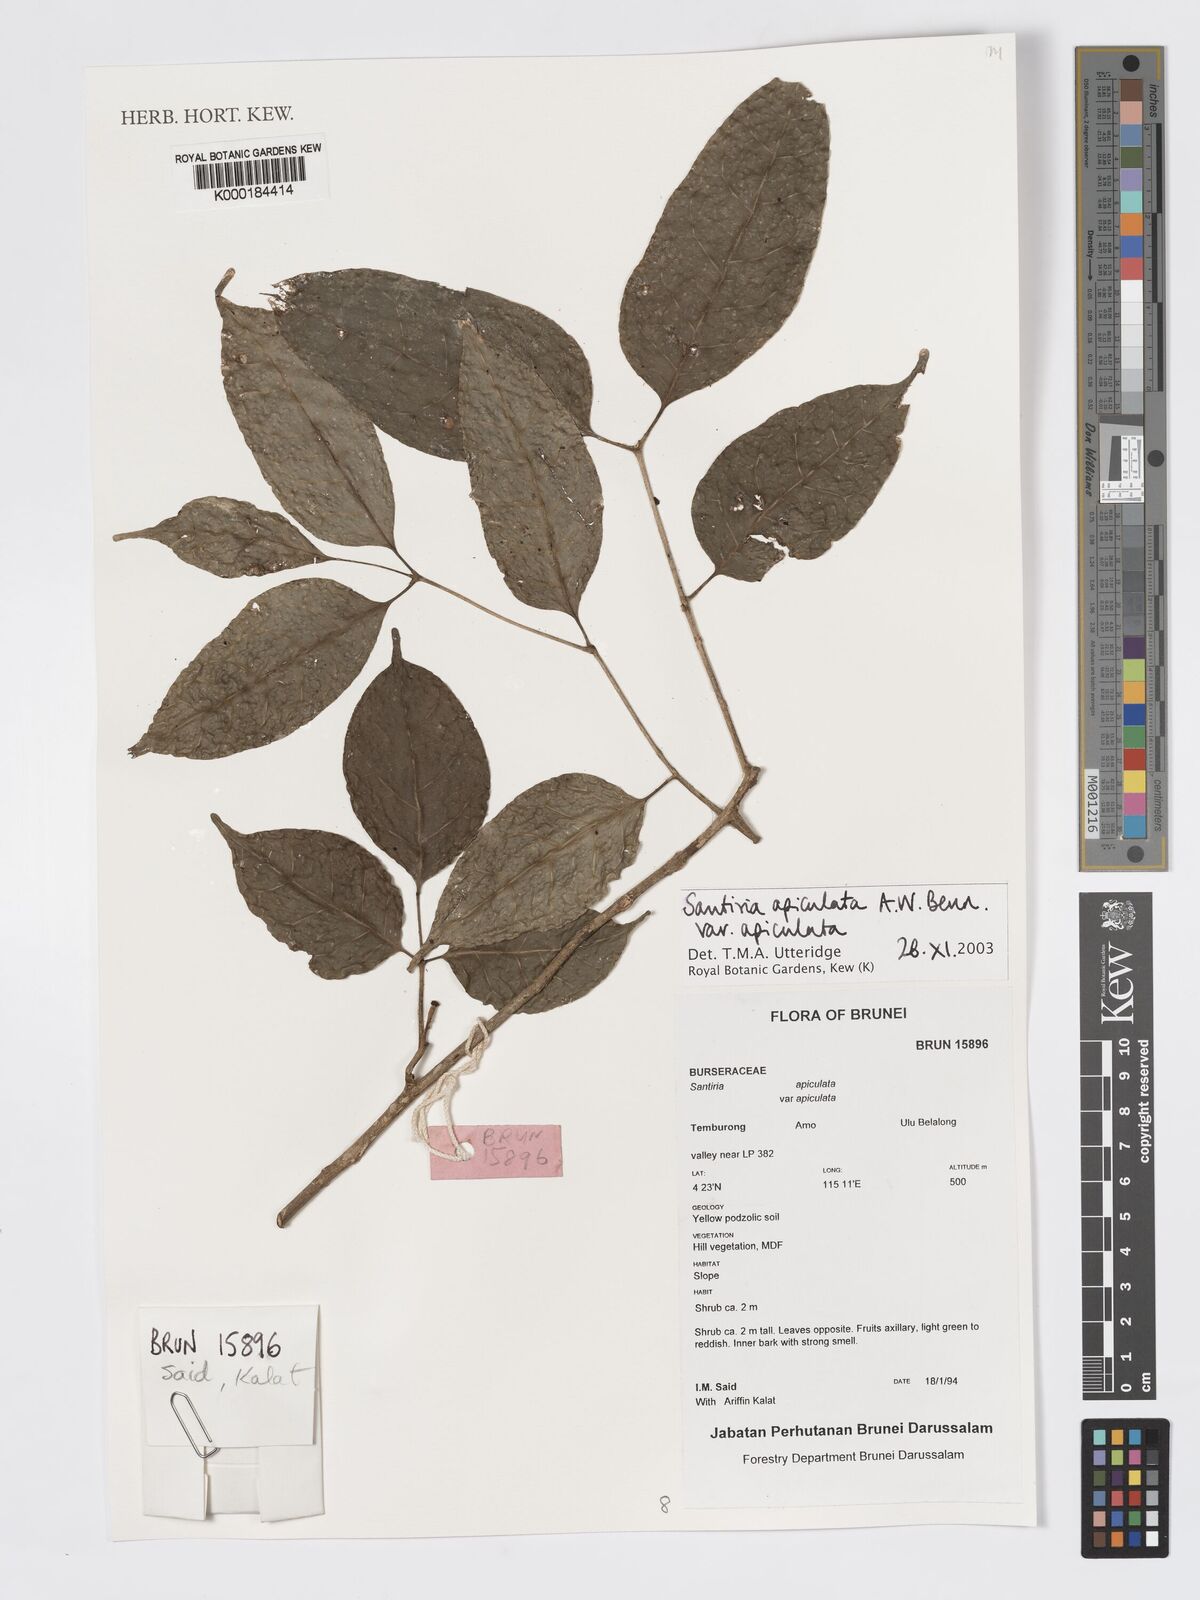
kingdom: Plantae
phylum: Tracheophyta
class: Magnoliopsida
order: Sapindales
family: Burseraceae
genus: Santiria
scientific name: Santiria apiculata
